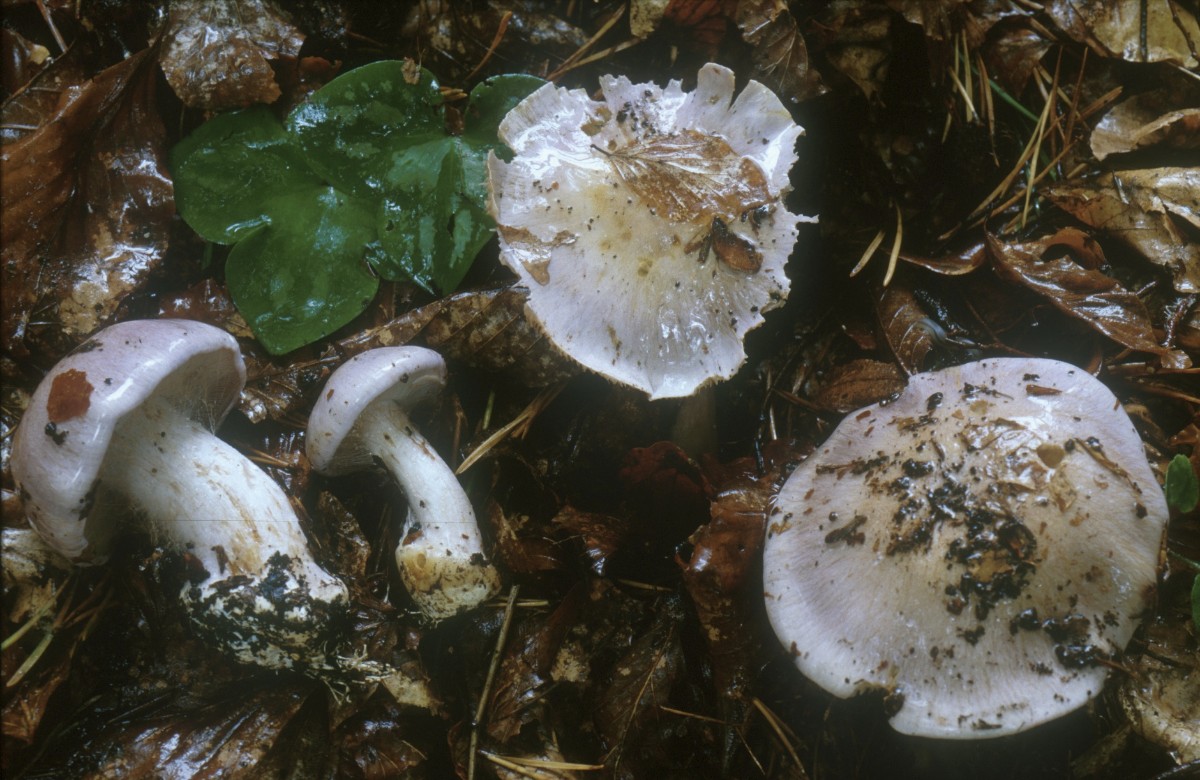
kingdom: Fungi
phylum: Basidiomycota
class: Agaricomycetes
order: Agaricales
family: Cortinariaceae
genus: Phlegmacium
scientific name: Phlegmacium terpsichores
